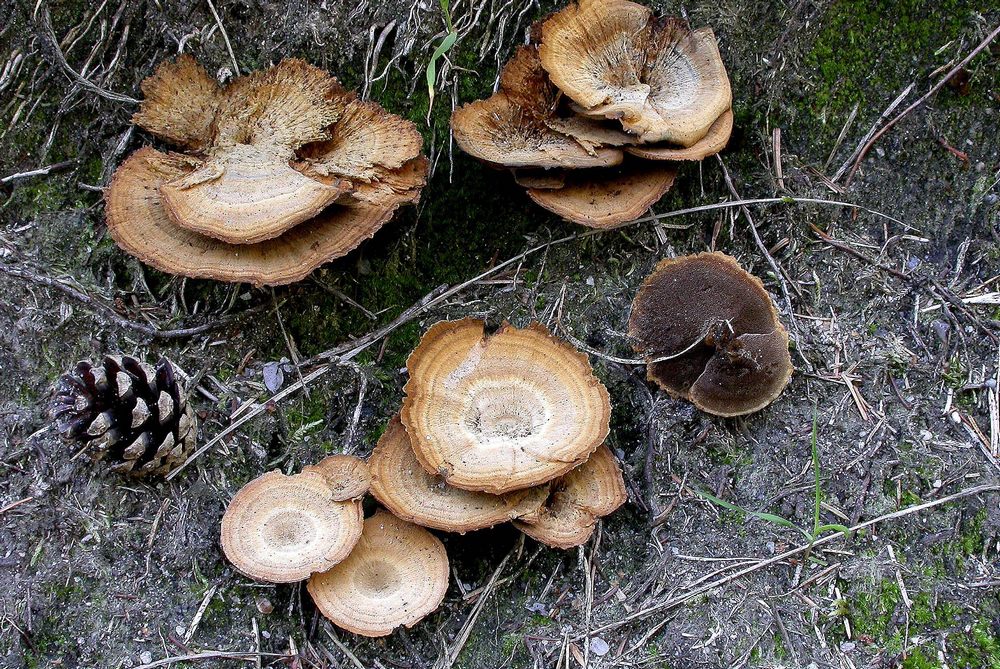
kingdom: Fungi
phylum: Basidiomycota
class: Agaricomycetes
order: Hymenochaetales
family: Hymenochaetaceae
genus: Coltricia
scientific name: Coltricia perennis
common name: almindelig sandporesvamp
